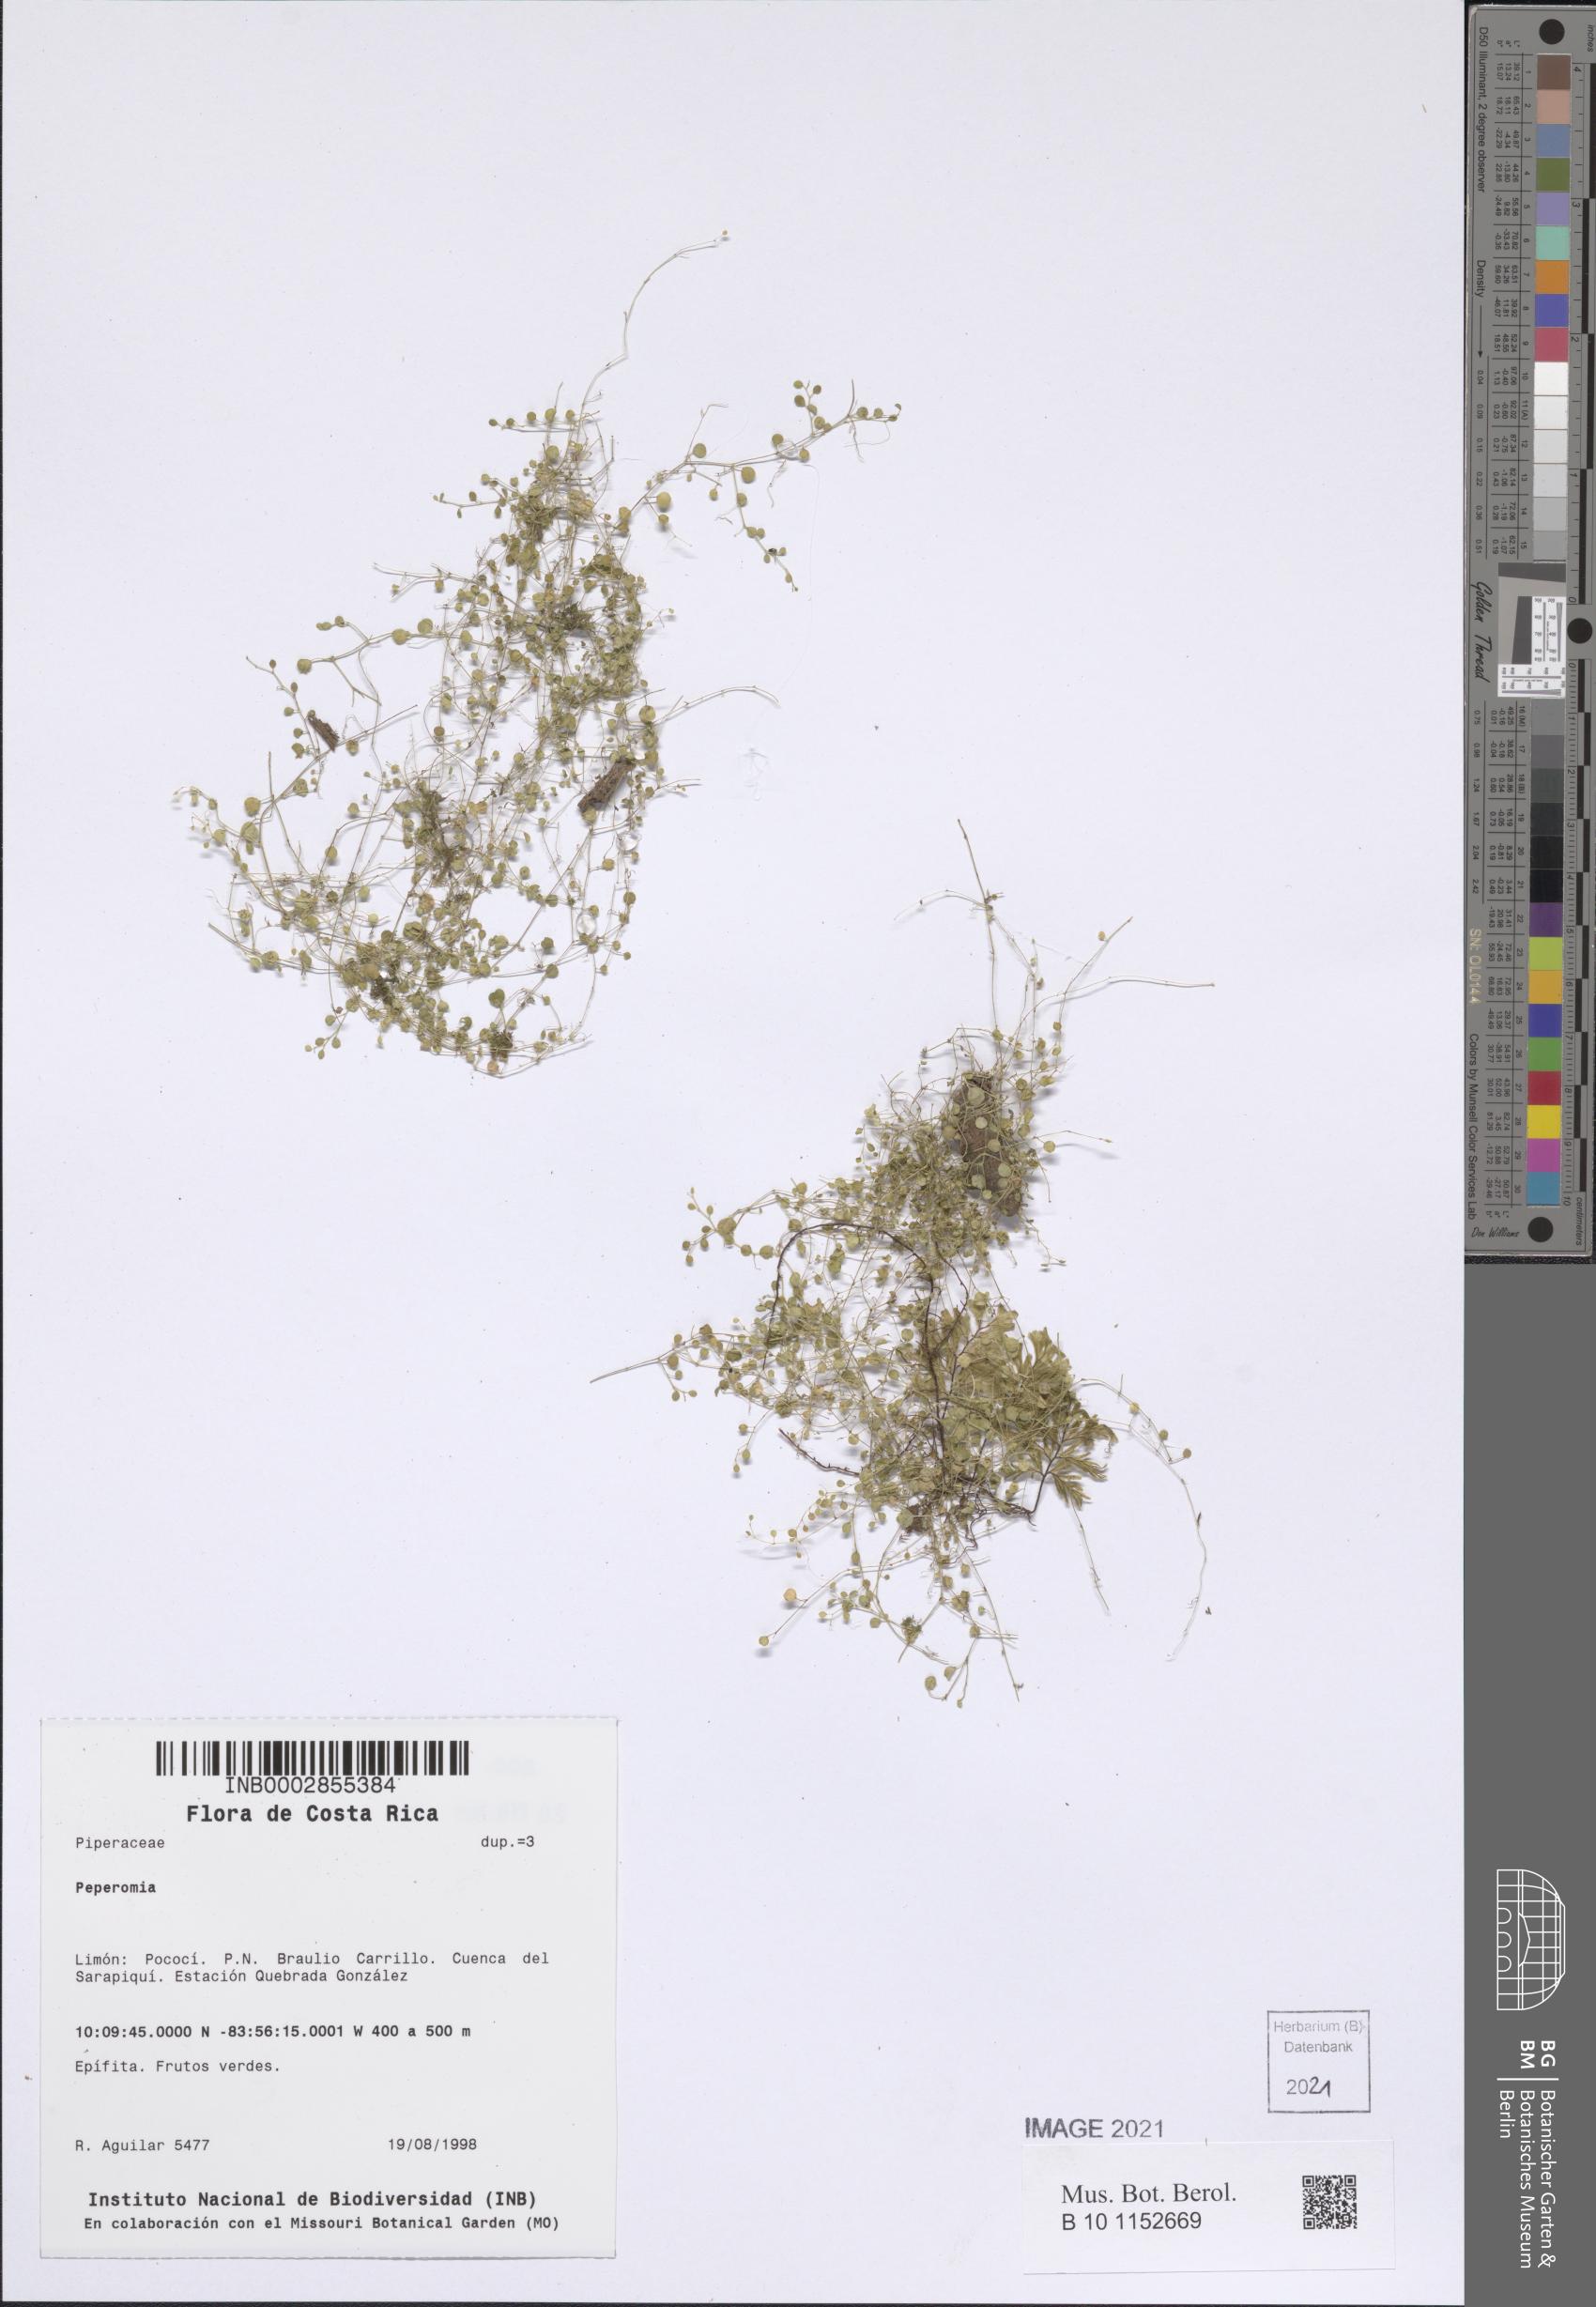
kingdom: Plantae
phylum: Tracheophyta
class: Magnoliopsida
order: Piperales
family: Piperaceae
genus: Peperomia
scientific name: Peperomia
